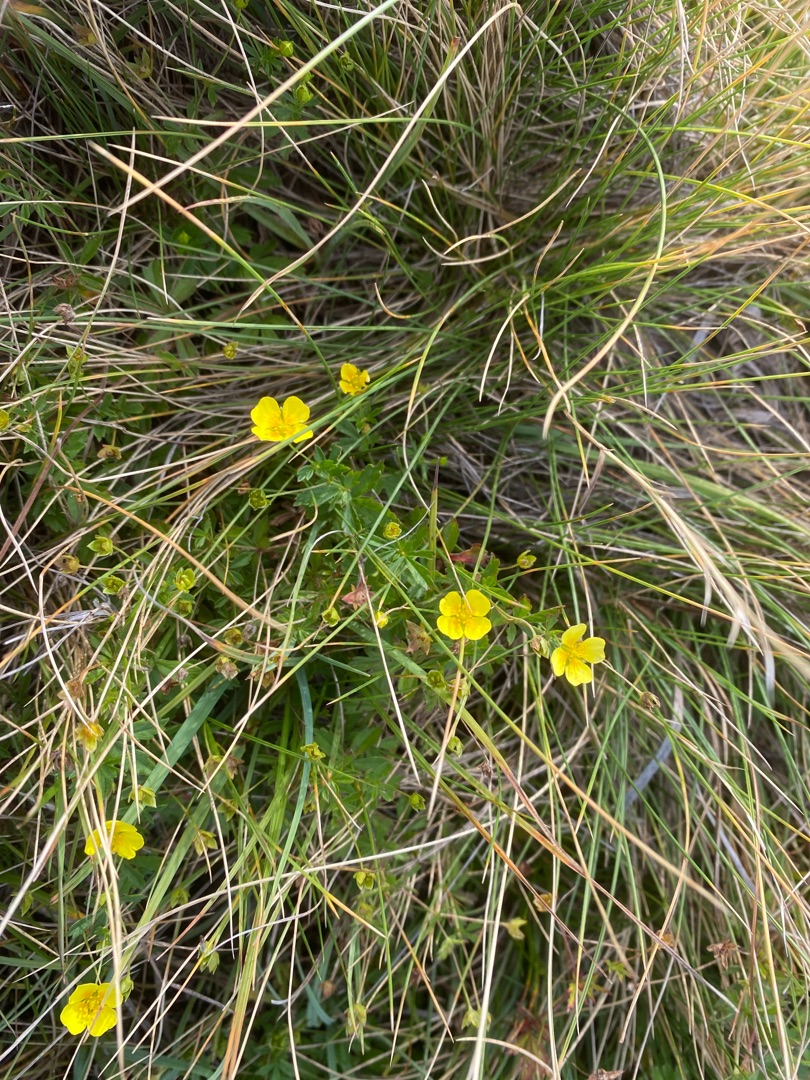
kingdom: Plantae
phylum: Tracheophyta
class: Magnoliopsida
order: Rosales
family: Rosaceae
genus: Potentilla
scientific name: Potentilla erecta
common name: Tormentil
